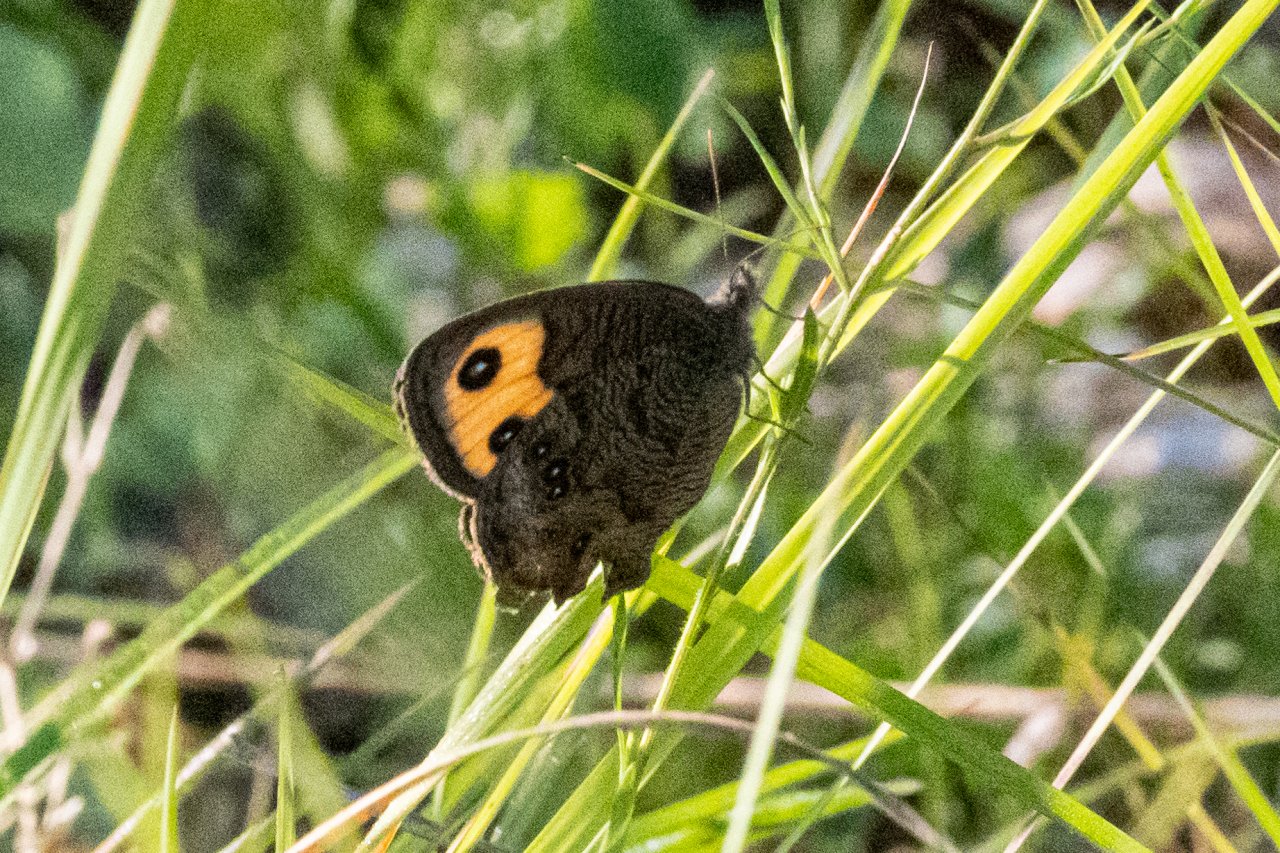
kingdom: Animalia
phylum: Arthropoda
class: Insecta
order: Lepidoptera
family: Nymphalidae
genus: Cercyonis
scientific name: Cercyonis pegala
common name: Common Wood-Nymph
